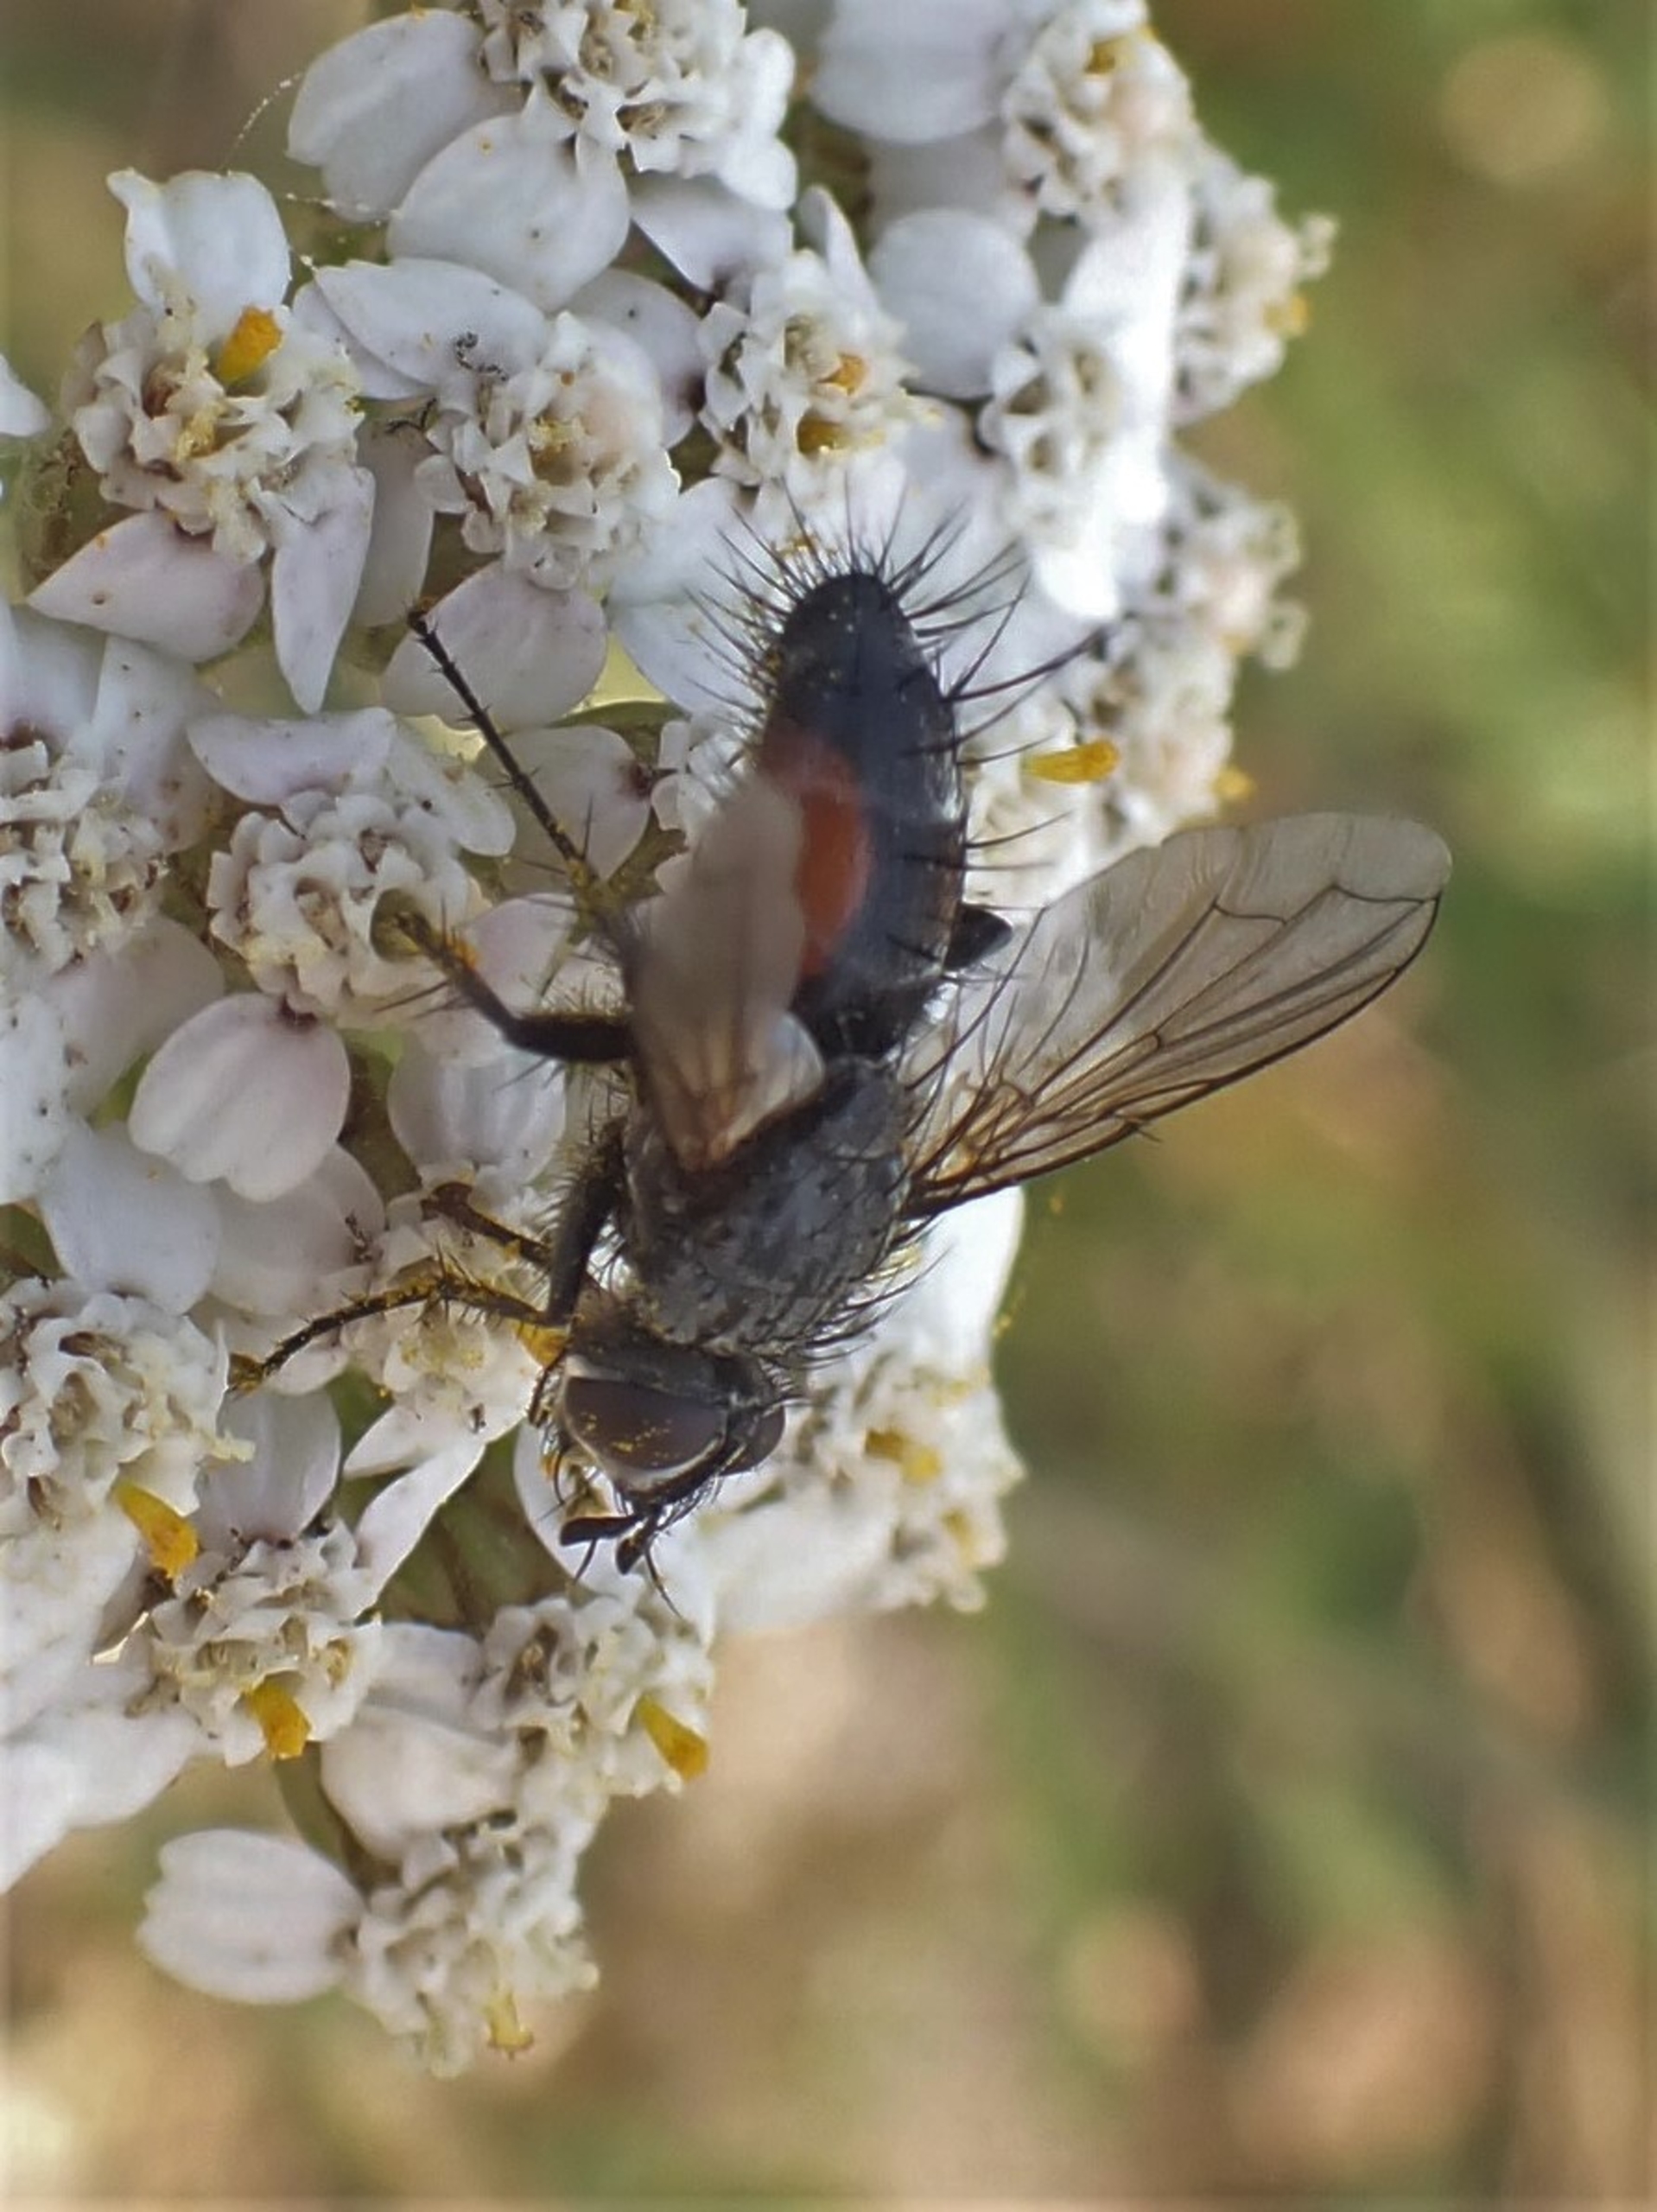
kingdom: Animalia
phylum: Arthropoda
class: Insecta
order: Diptera
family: Tachinidae
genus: Eriothrix
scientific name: Eriothrix rufomaculatus
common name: Rød snylteflue
